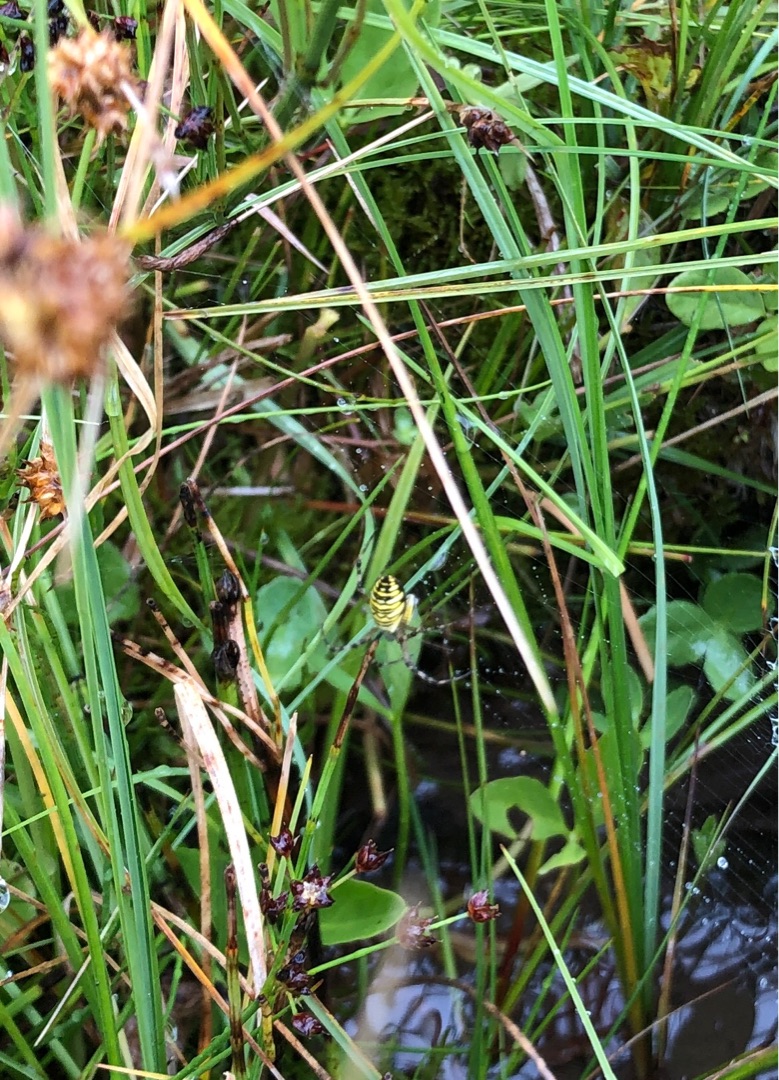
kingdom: Animalia
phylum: Arthropoda
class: Arachnida
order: Araneae
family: Araneidae
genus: Argiope
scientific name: Argiope bruennichi
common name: Hvepseedderkop
